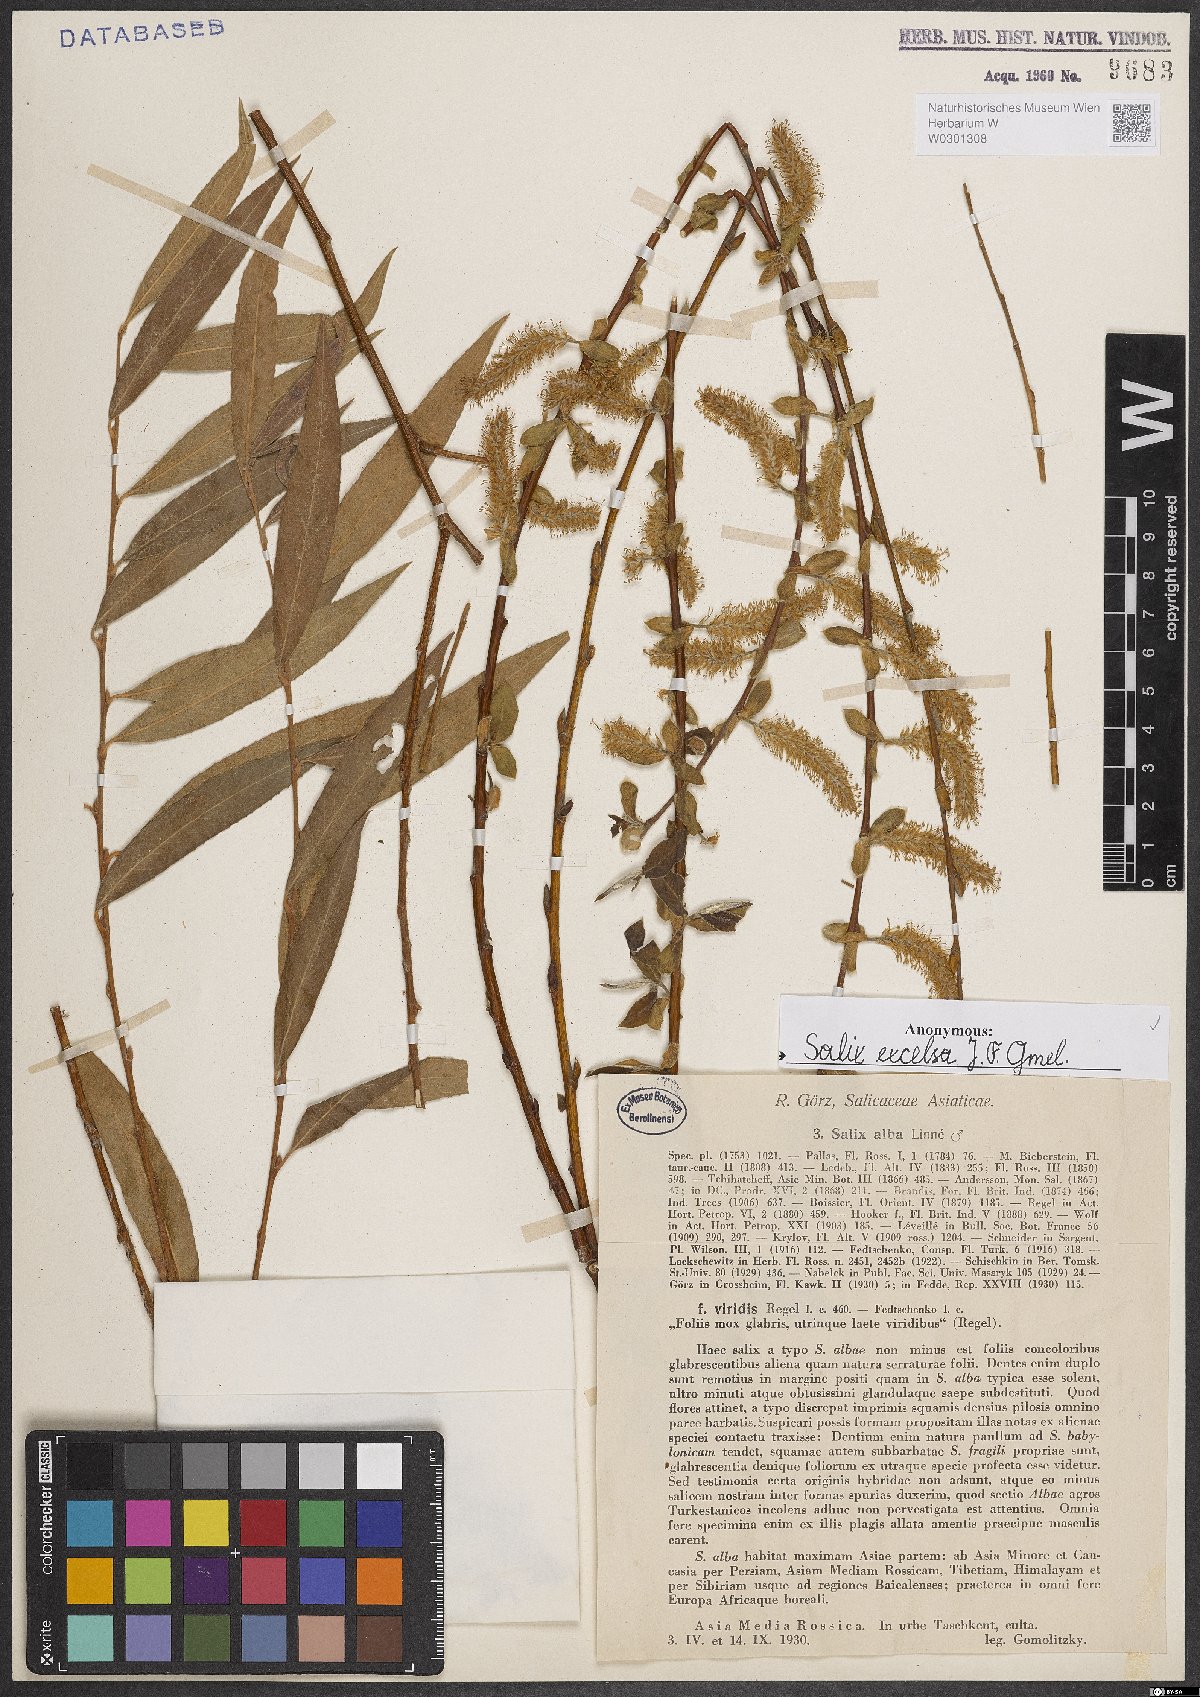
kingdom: Plantae
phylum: Tracheophyta
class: Magnoliopsida
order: Malpighiales
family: Salicaceae
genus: Salix
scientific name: Salix excelsa
